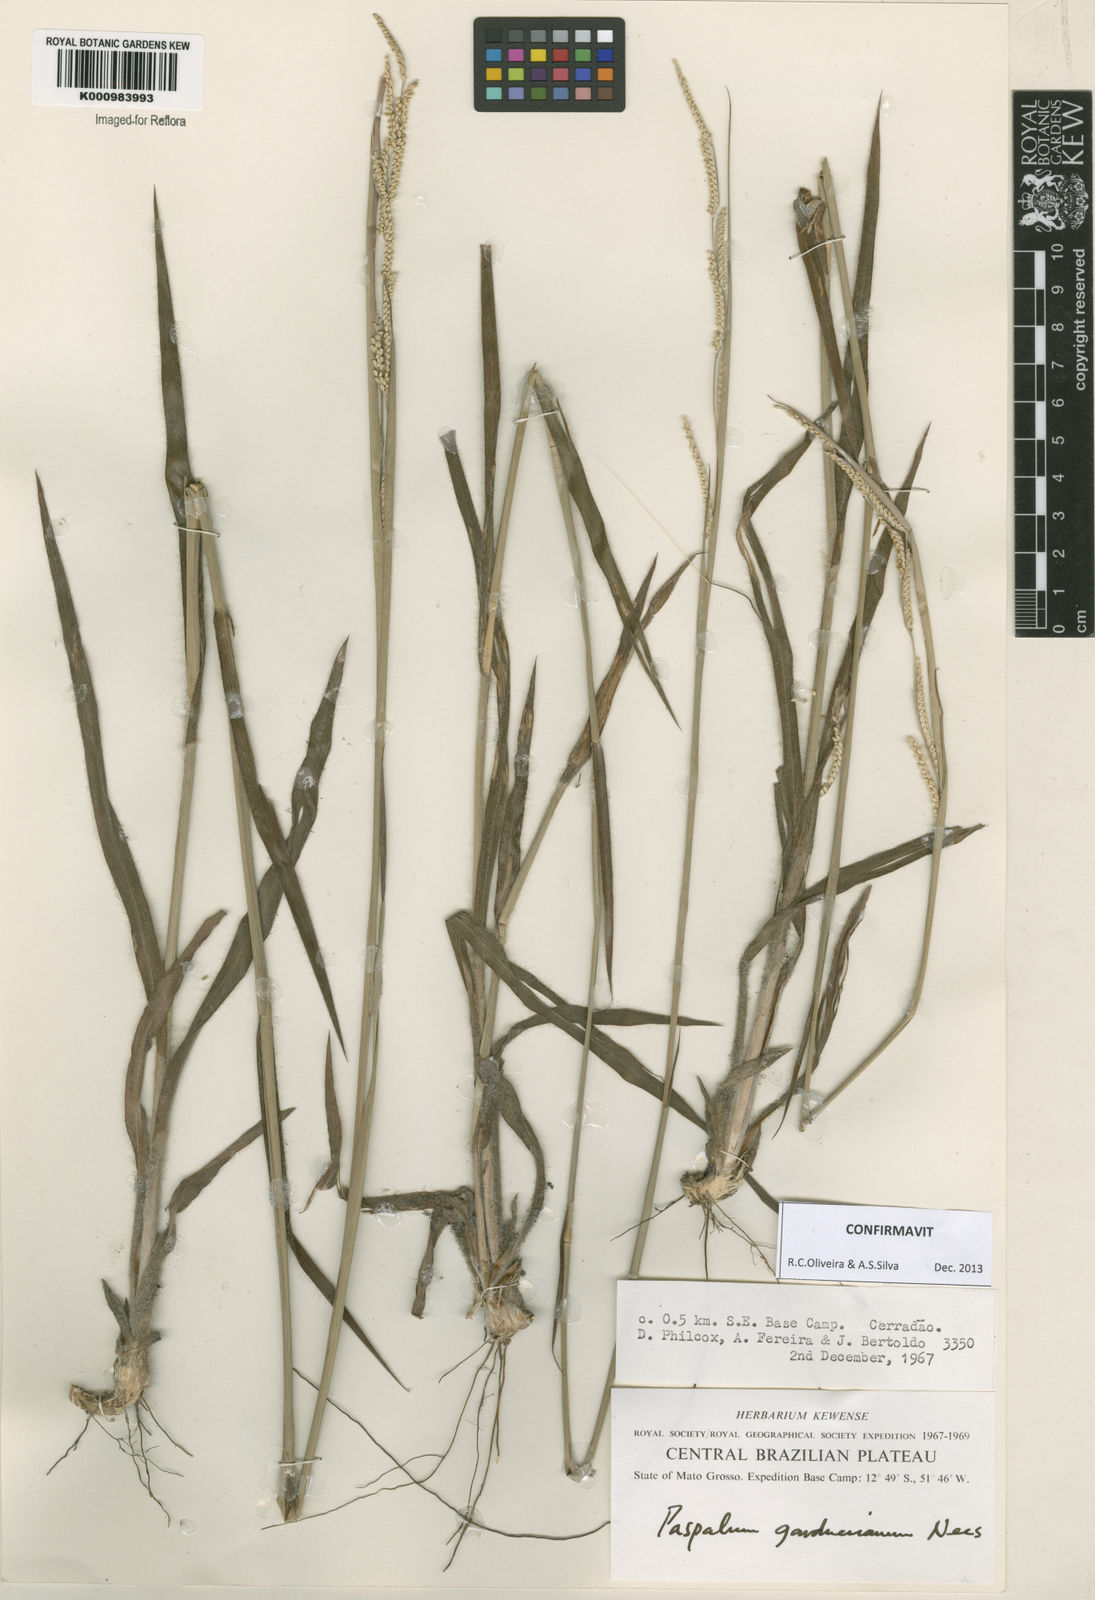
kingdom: Plantae
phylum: Tracheophyta
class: Liliopsida
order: Poales
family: Poaceae
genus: Paspalum
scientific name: Paspalum gardnerianum
